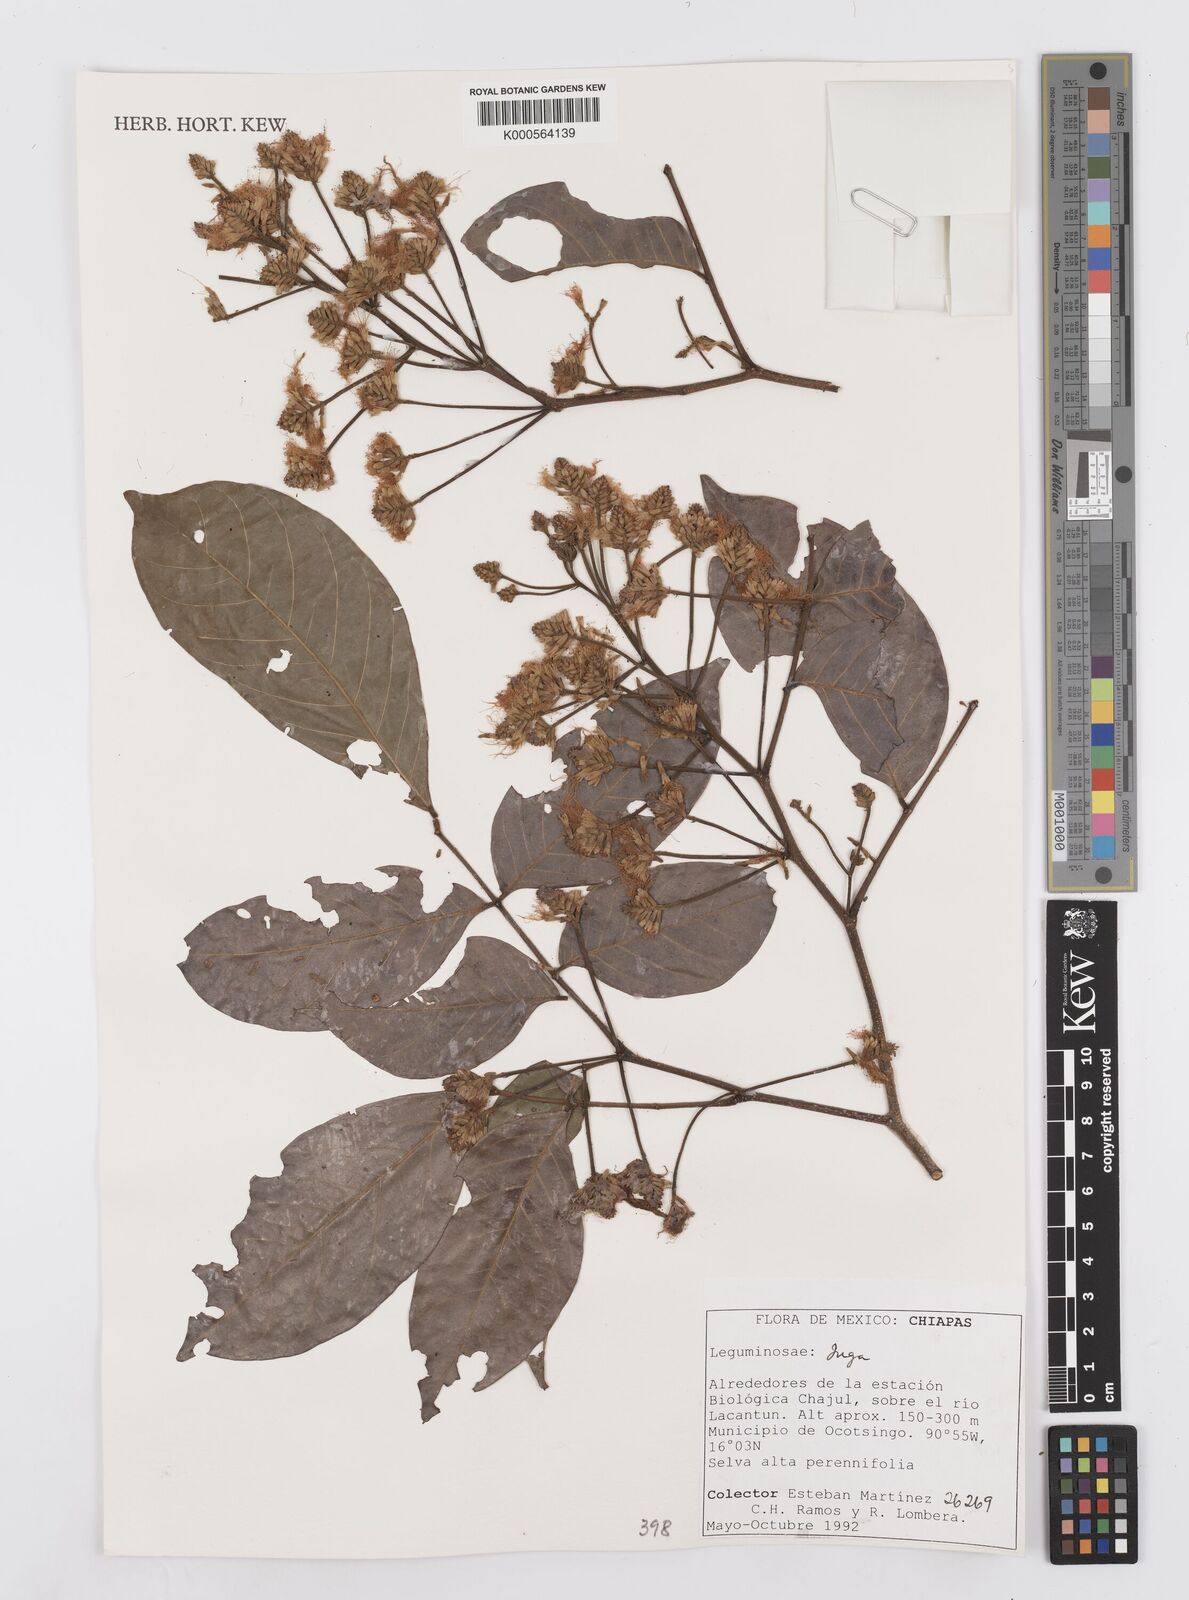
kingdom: Plantae
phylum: Tracheophyta
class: Magnoliopsida
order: Fabales
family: Fabaceae
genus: Inga
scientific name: Inga
